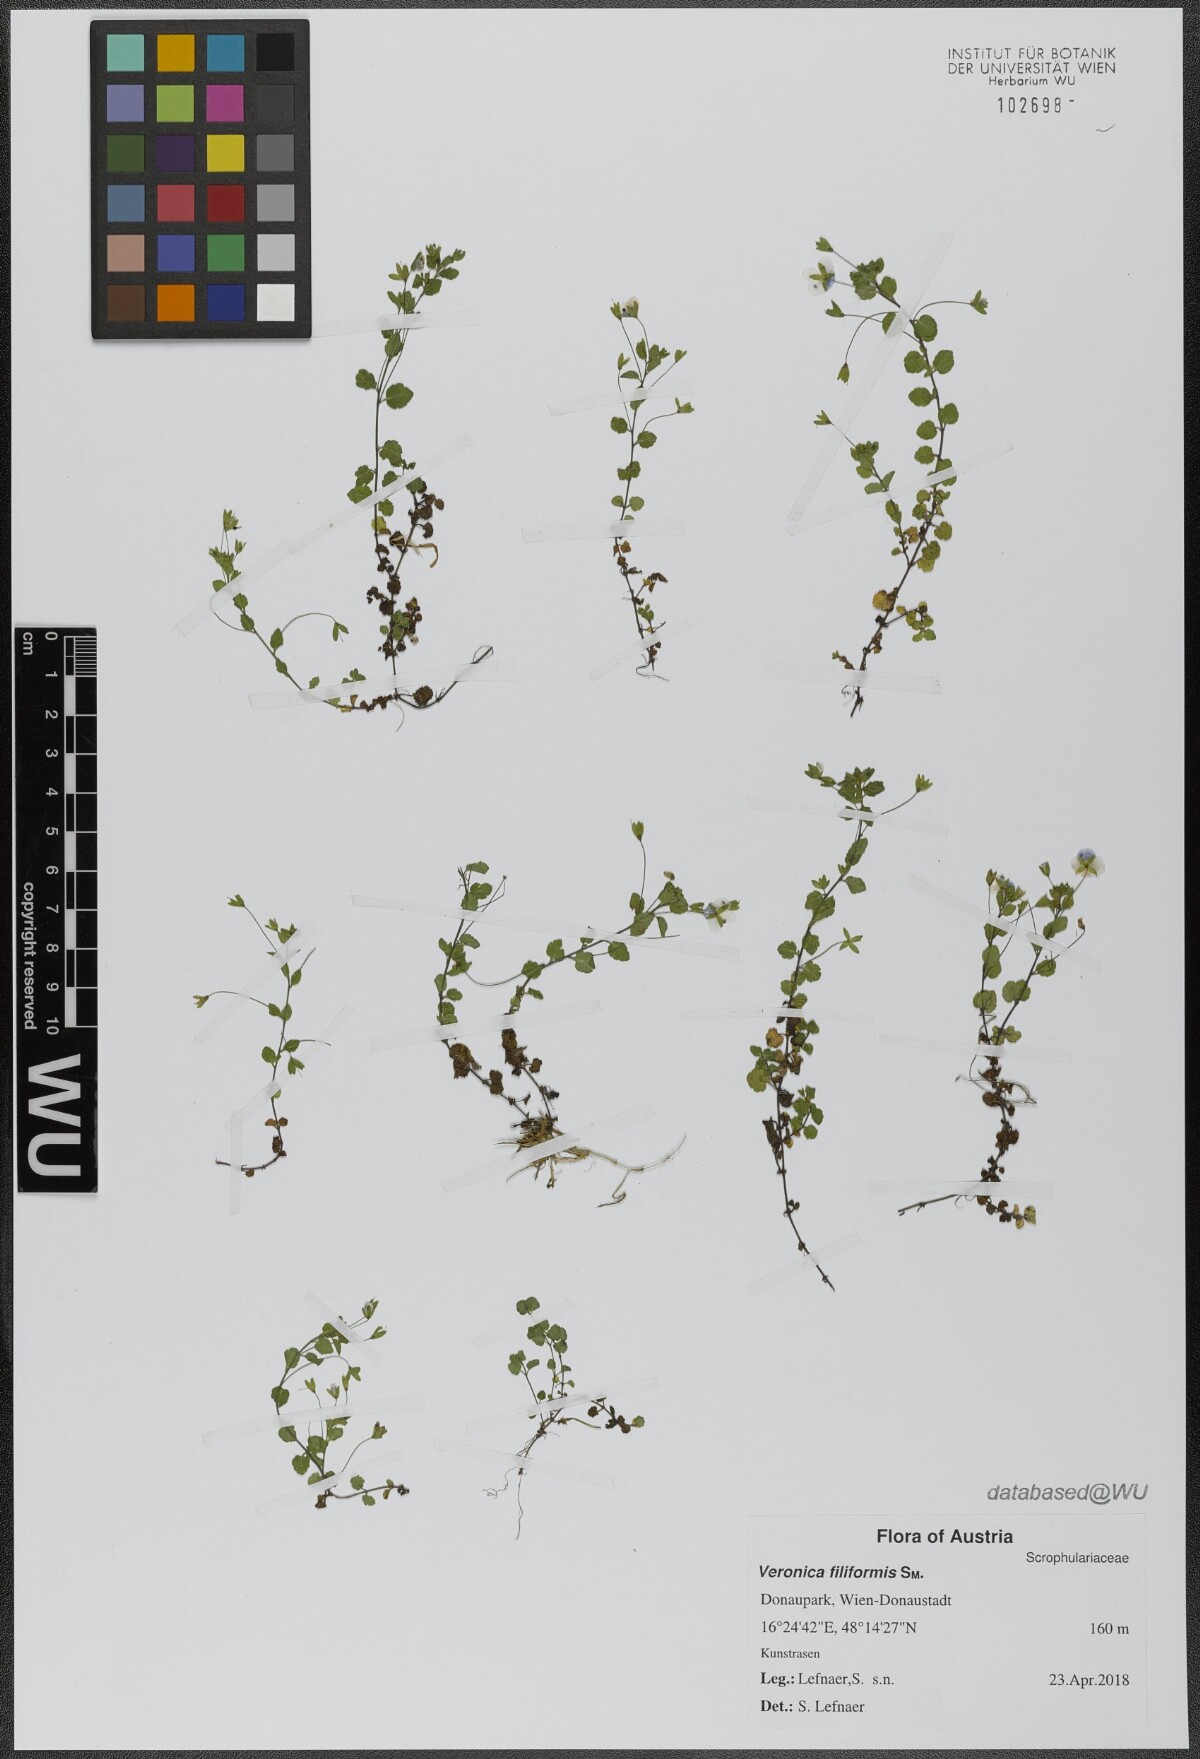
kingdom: Plantae
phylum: Tracheophyta
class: Magnoliopsida
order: Lamiales
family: Plantaginaceae
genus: Veronica
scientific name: Veronica filiformis
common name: Slender speedwell
